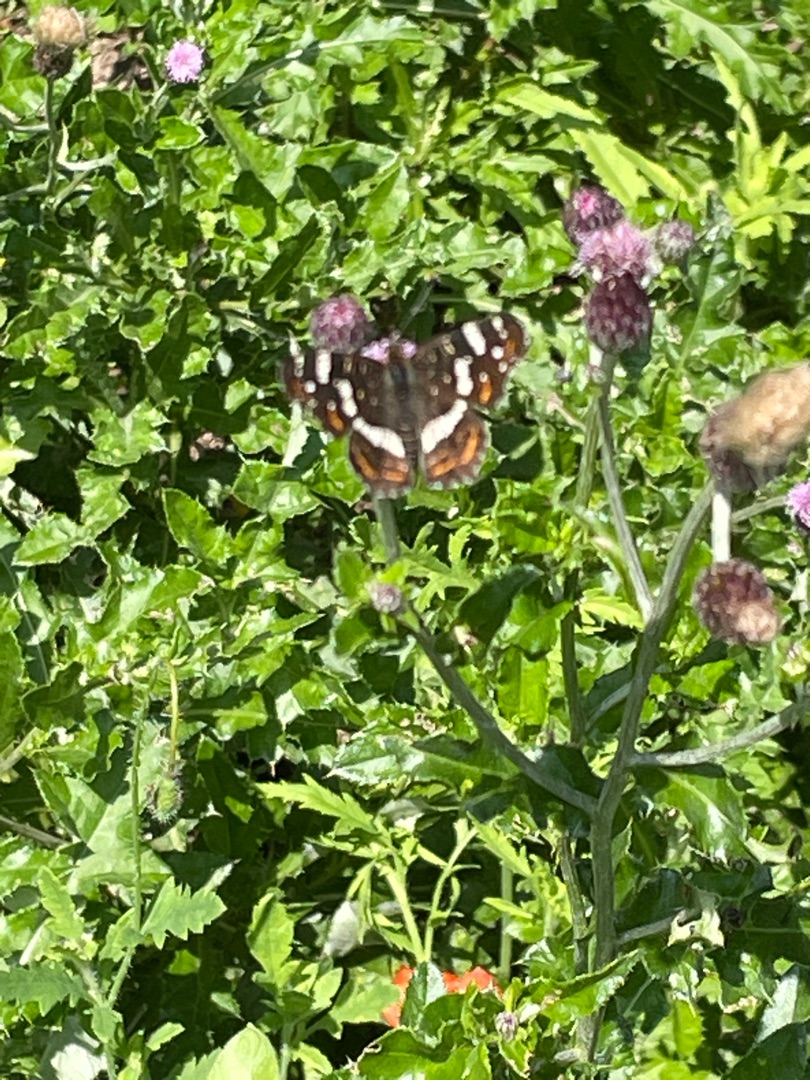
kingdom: Animalia
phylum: Arthropoda
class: Insecta
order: Lepidoptera
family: Nymphalidae
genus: Araschnia
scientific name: Araschnia levana
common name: Nældesommerfugl
